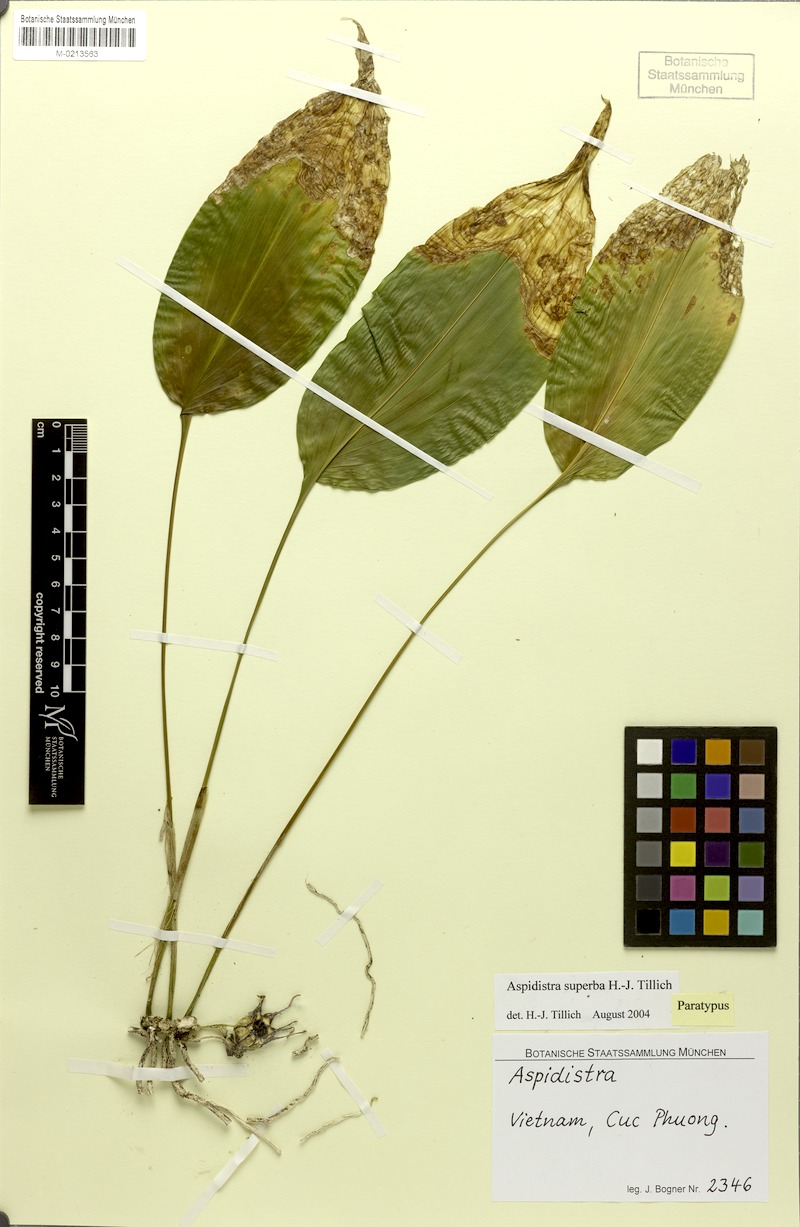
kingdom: Plantae
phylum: Tracheophyta
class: Liliopsida
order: Asparagales
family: Asparagaceae
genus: Aspidistra
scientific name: Aspidistra superba
